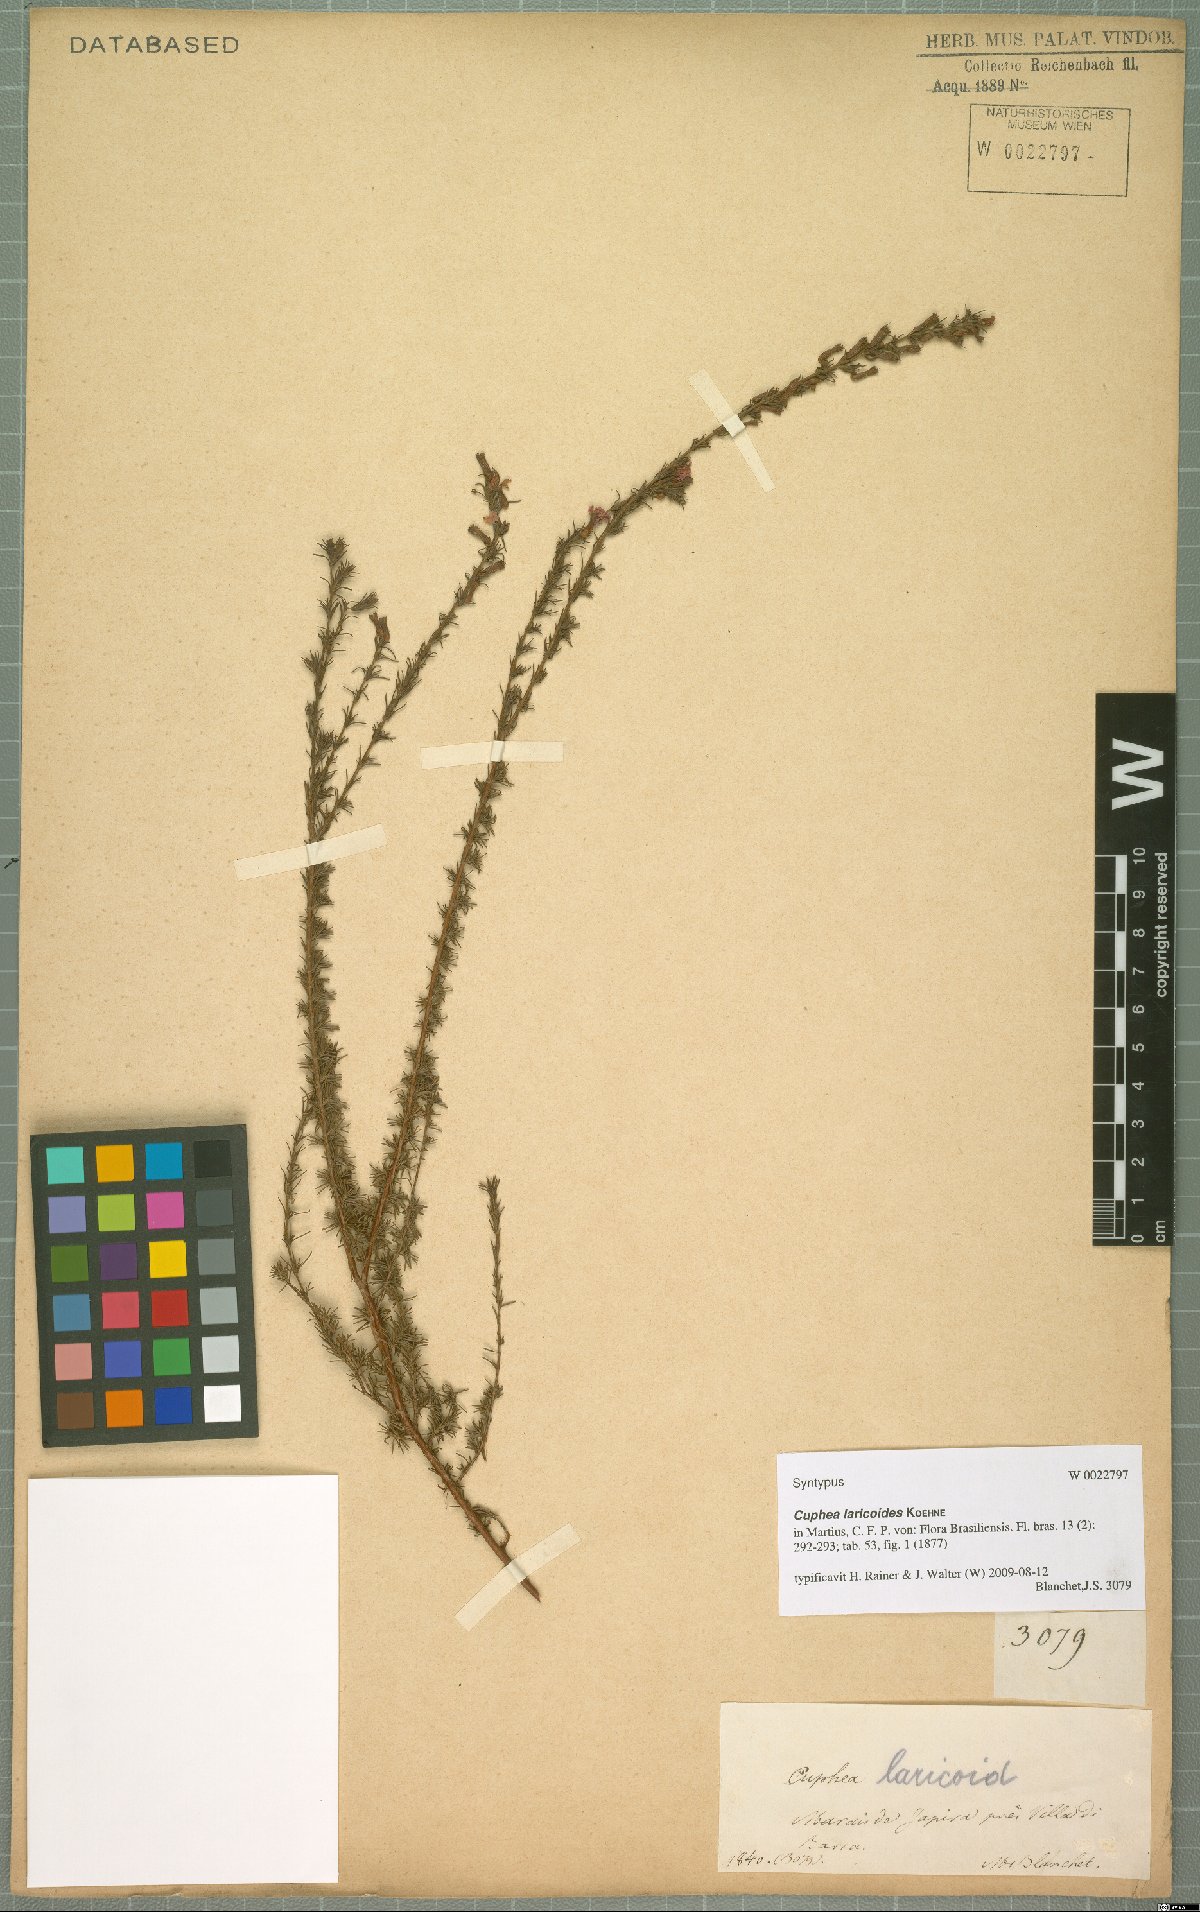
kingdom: Plantae
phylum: Tracheophyta
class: Magnoliopsida
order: Myrtales
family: Lythraceae
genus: Cuphea
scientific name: Cuphea laricoides
